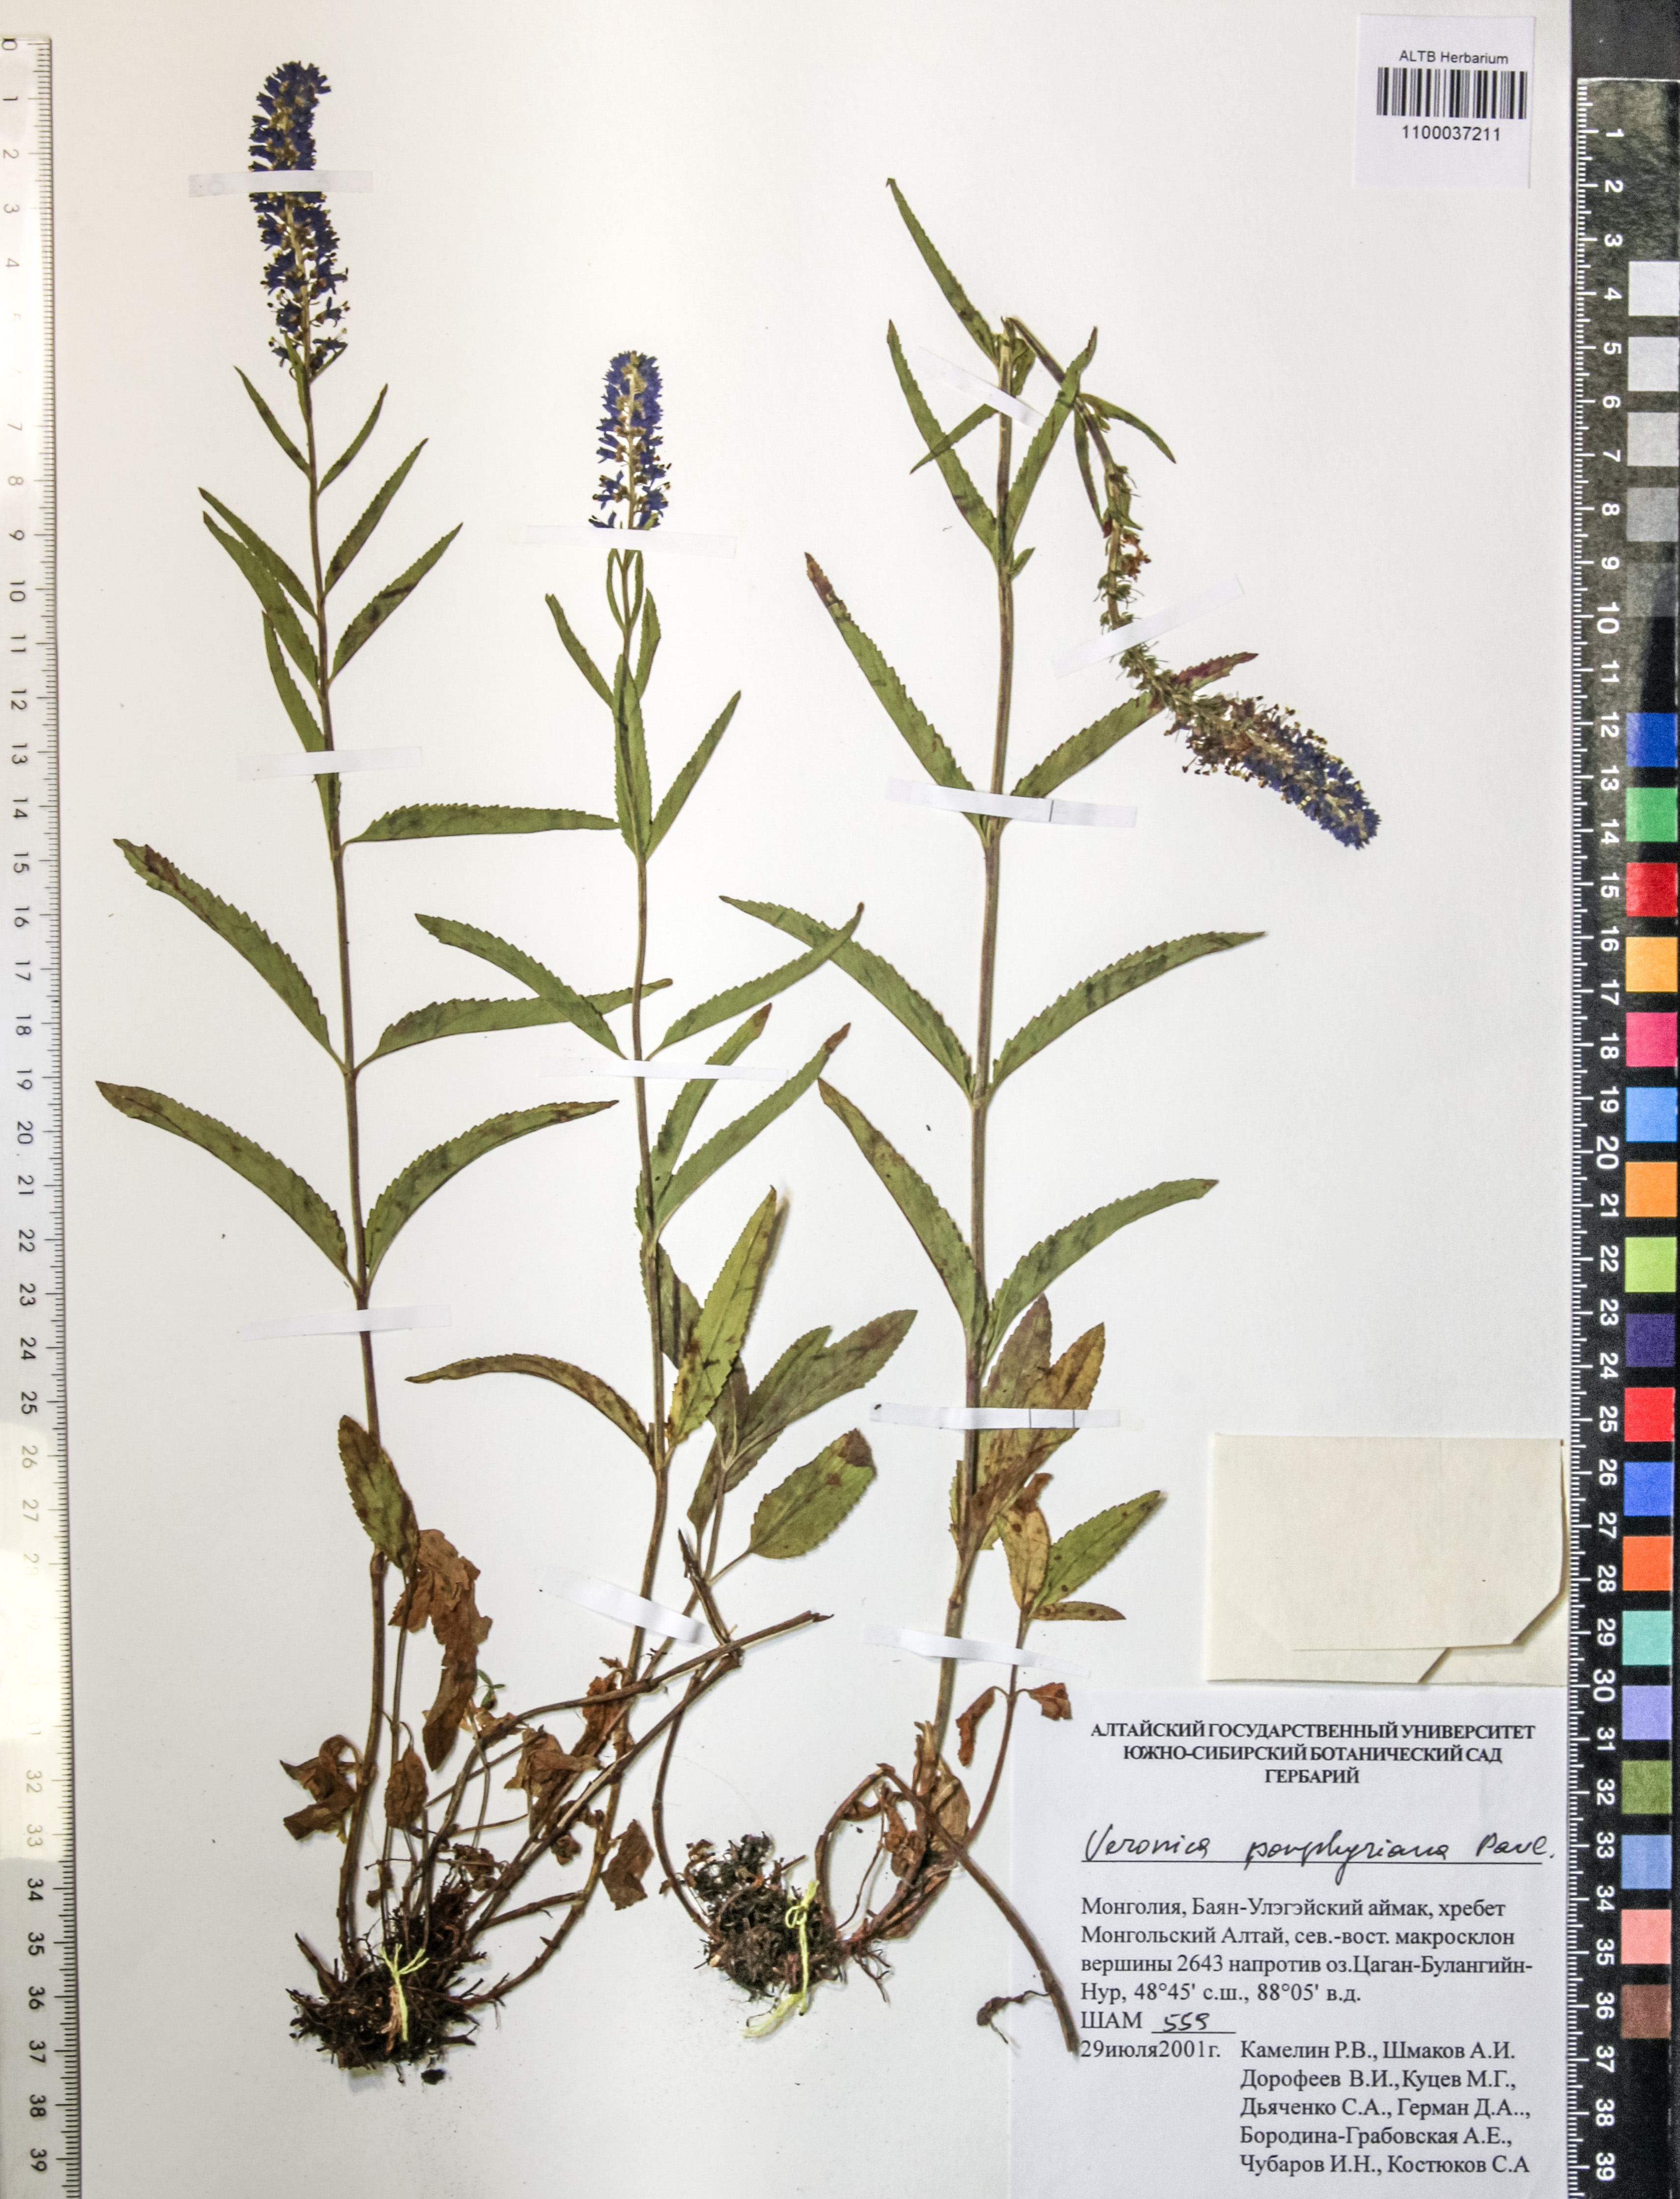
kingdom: Plantae
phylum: Tracheophyta
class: Magnoliopsida
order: Lamiales
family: Plantaginaceae
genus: Veronica
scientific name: Veronica porphyriana
